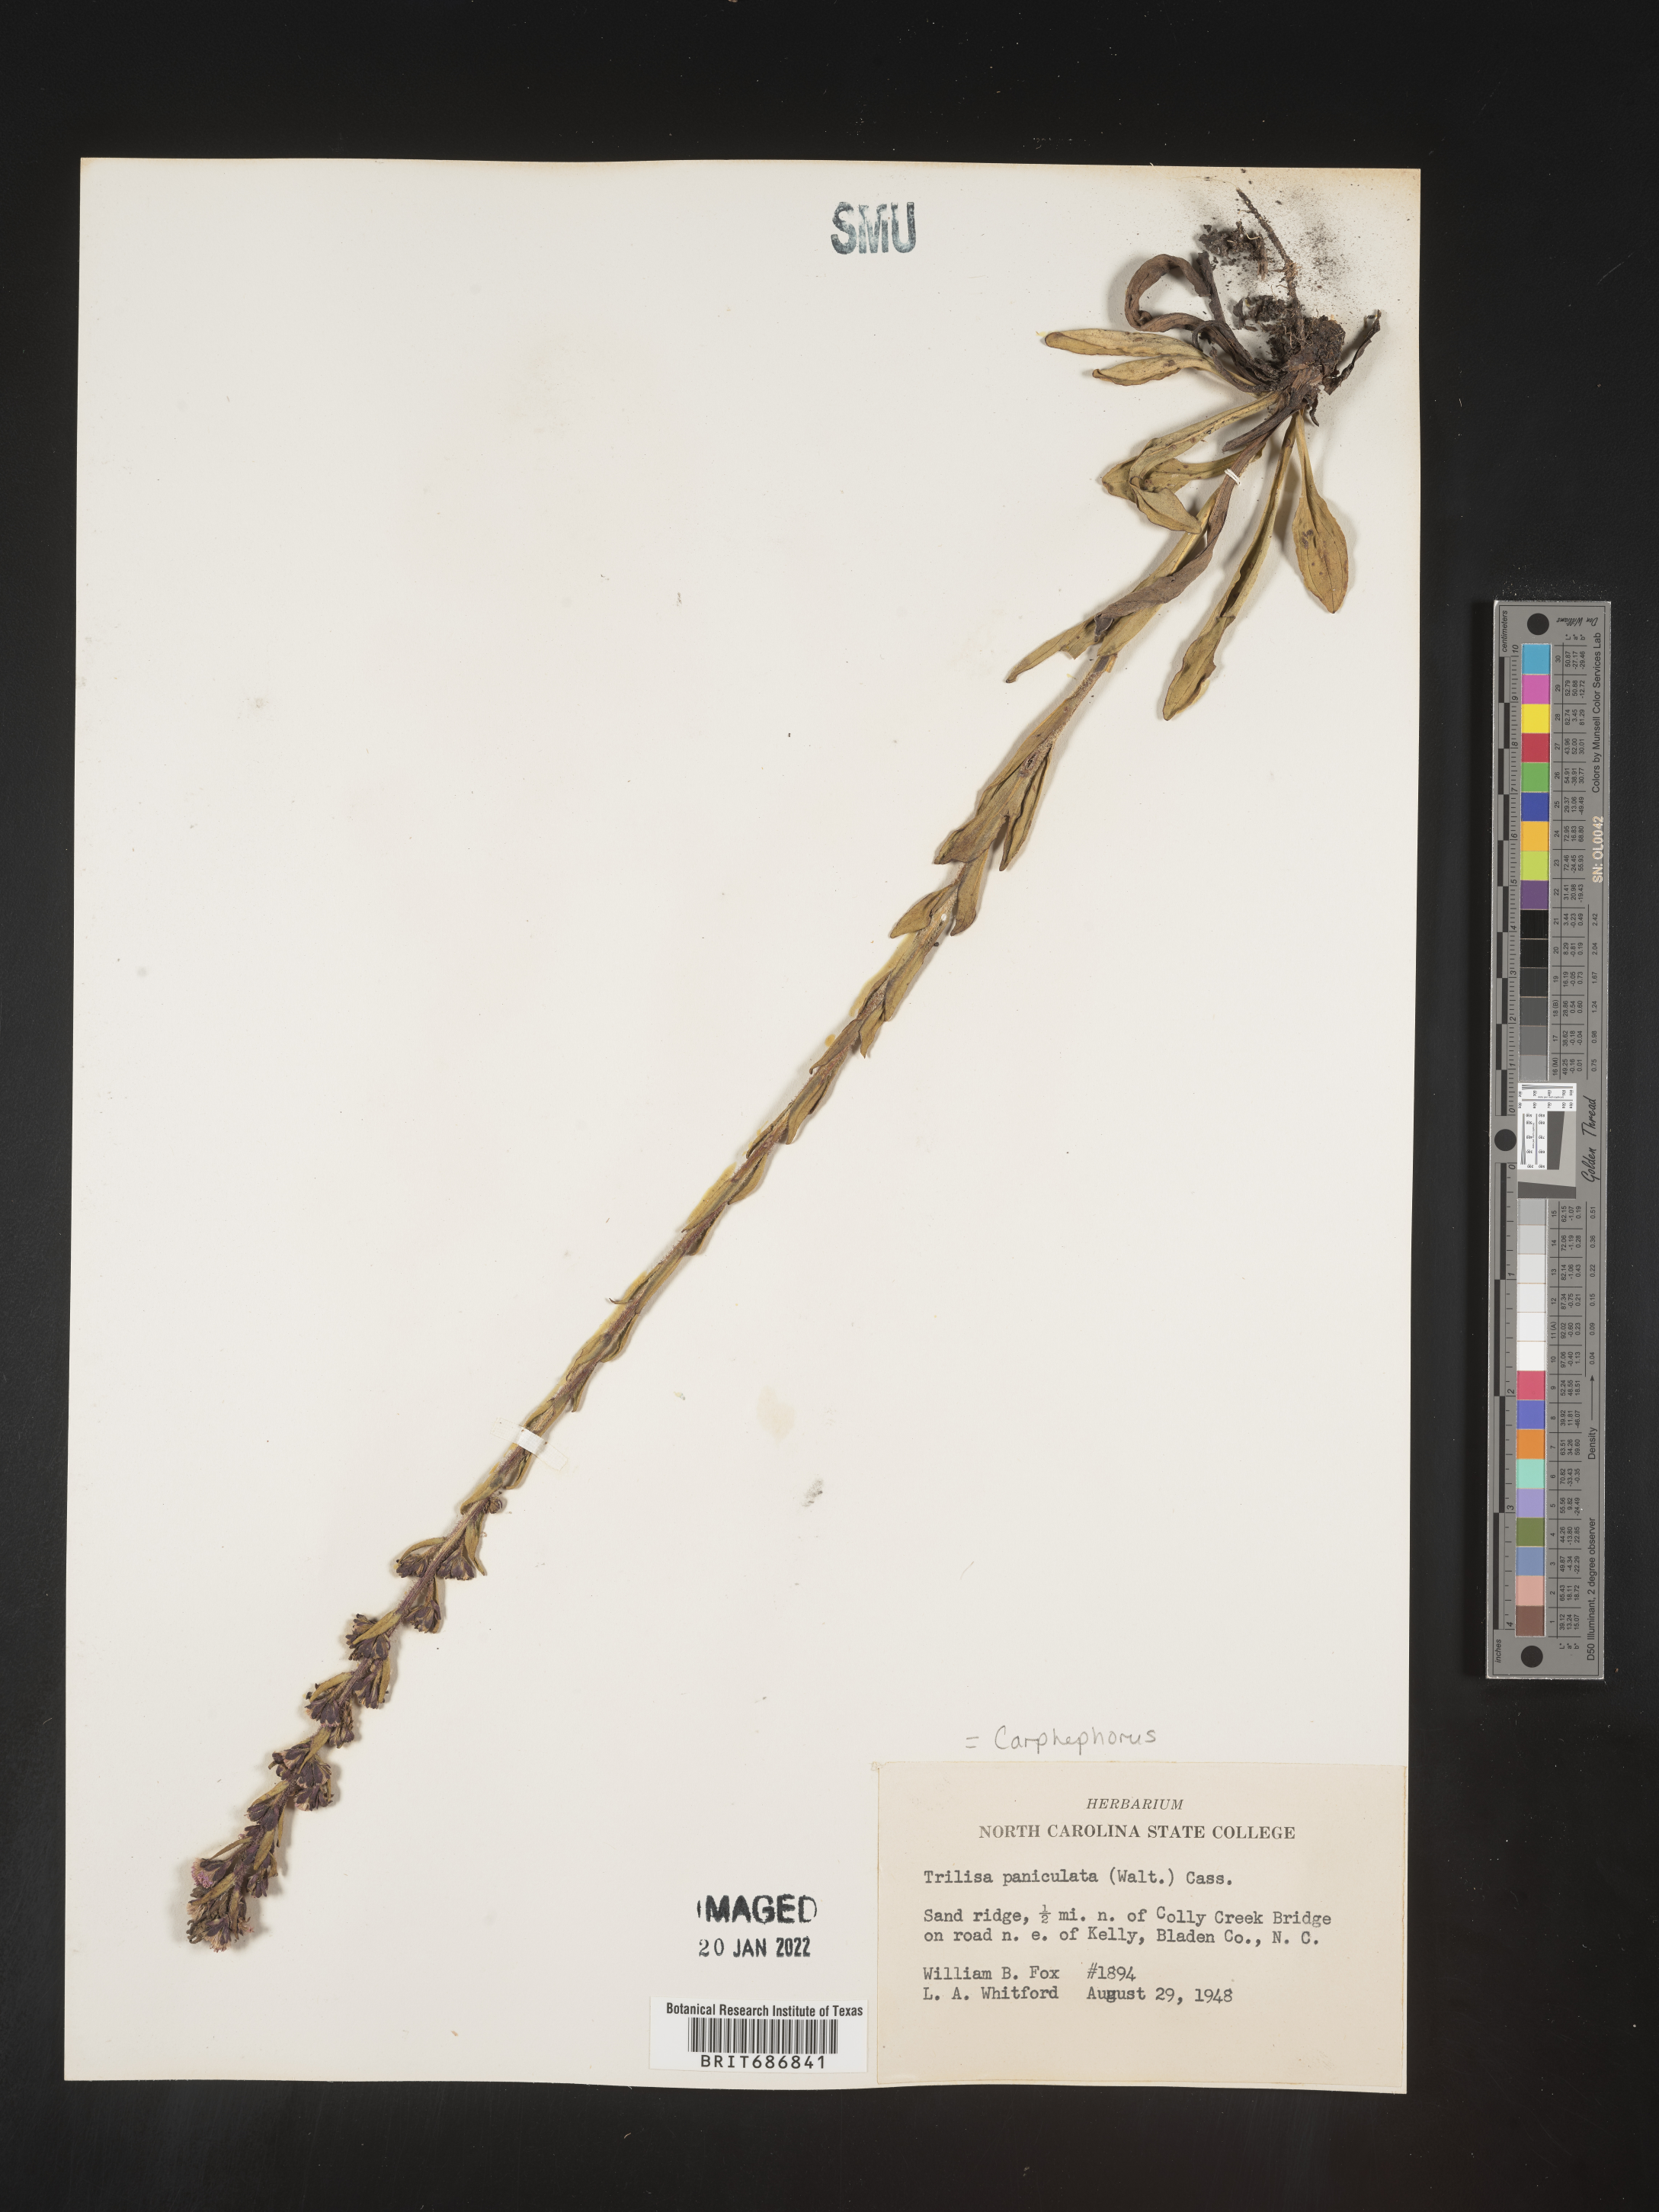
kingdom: Plantae
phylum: Tracheophyta
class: Magnoliopsida
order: Asterales
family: Asteraceae
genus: Carphephorus
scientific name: Carphephorus paniculatus
